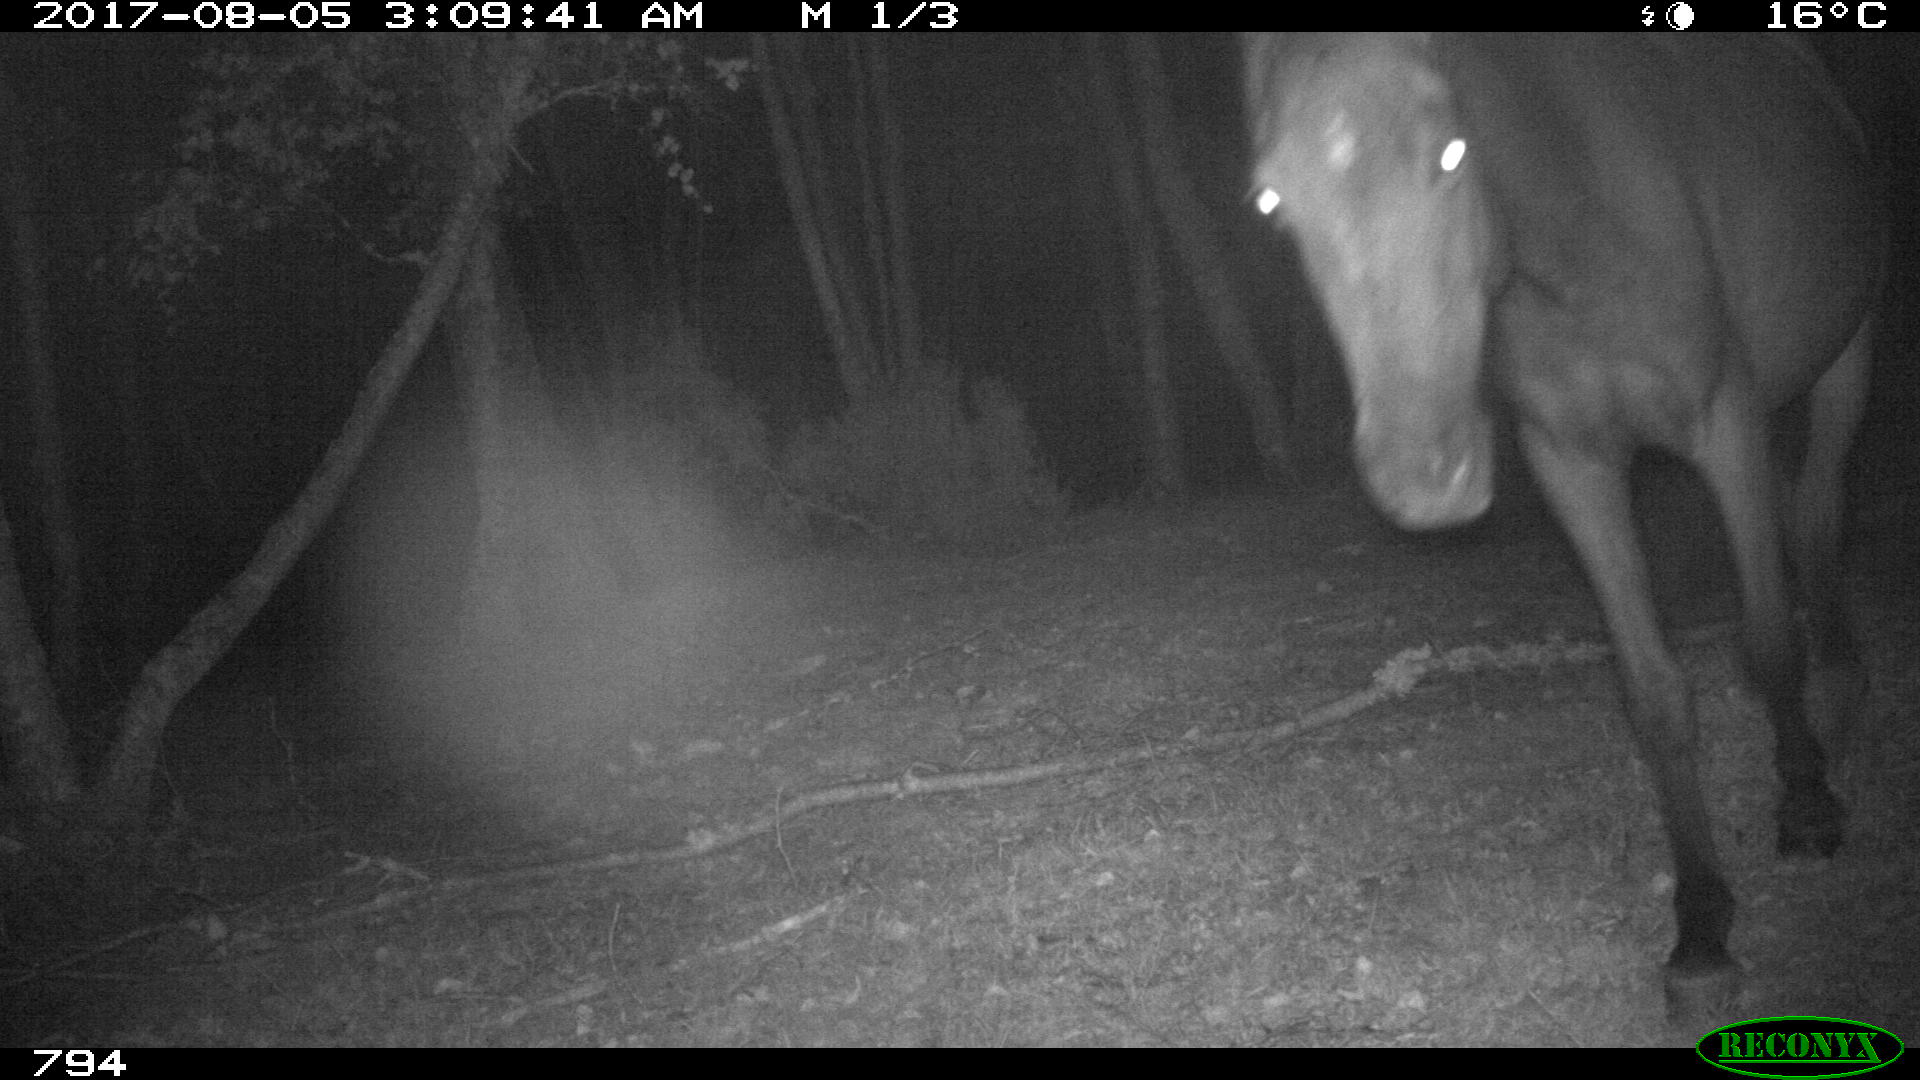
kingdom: Animalia
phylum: Chordata
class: Mammalia
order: Perissodactyla
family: Equidae
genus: Equus
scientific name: Equus caballus
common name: Horse
